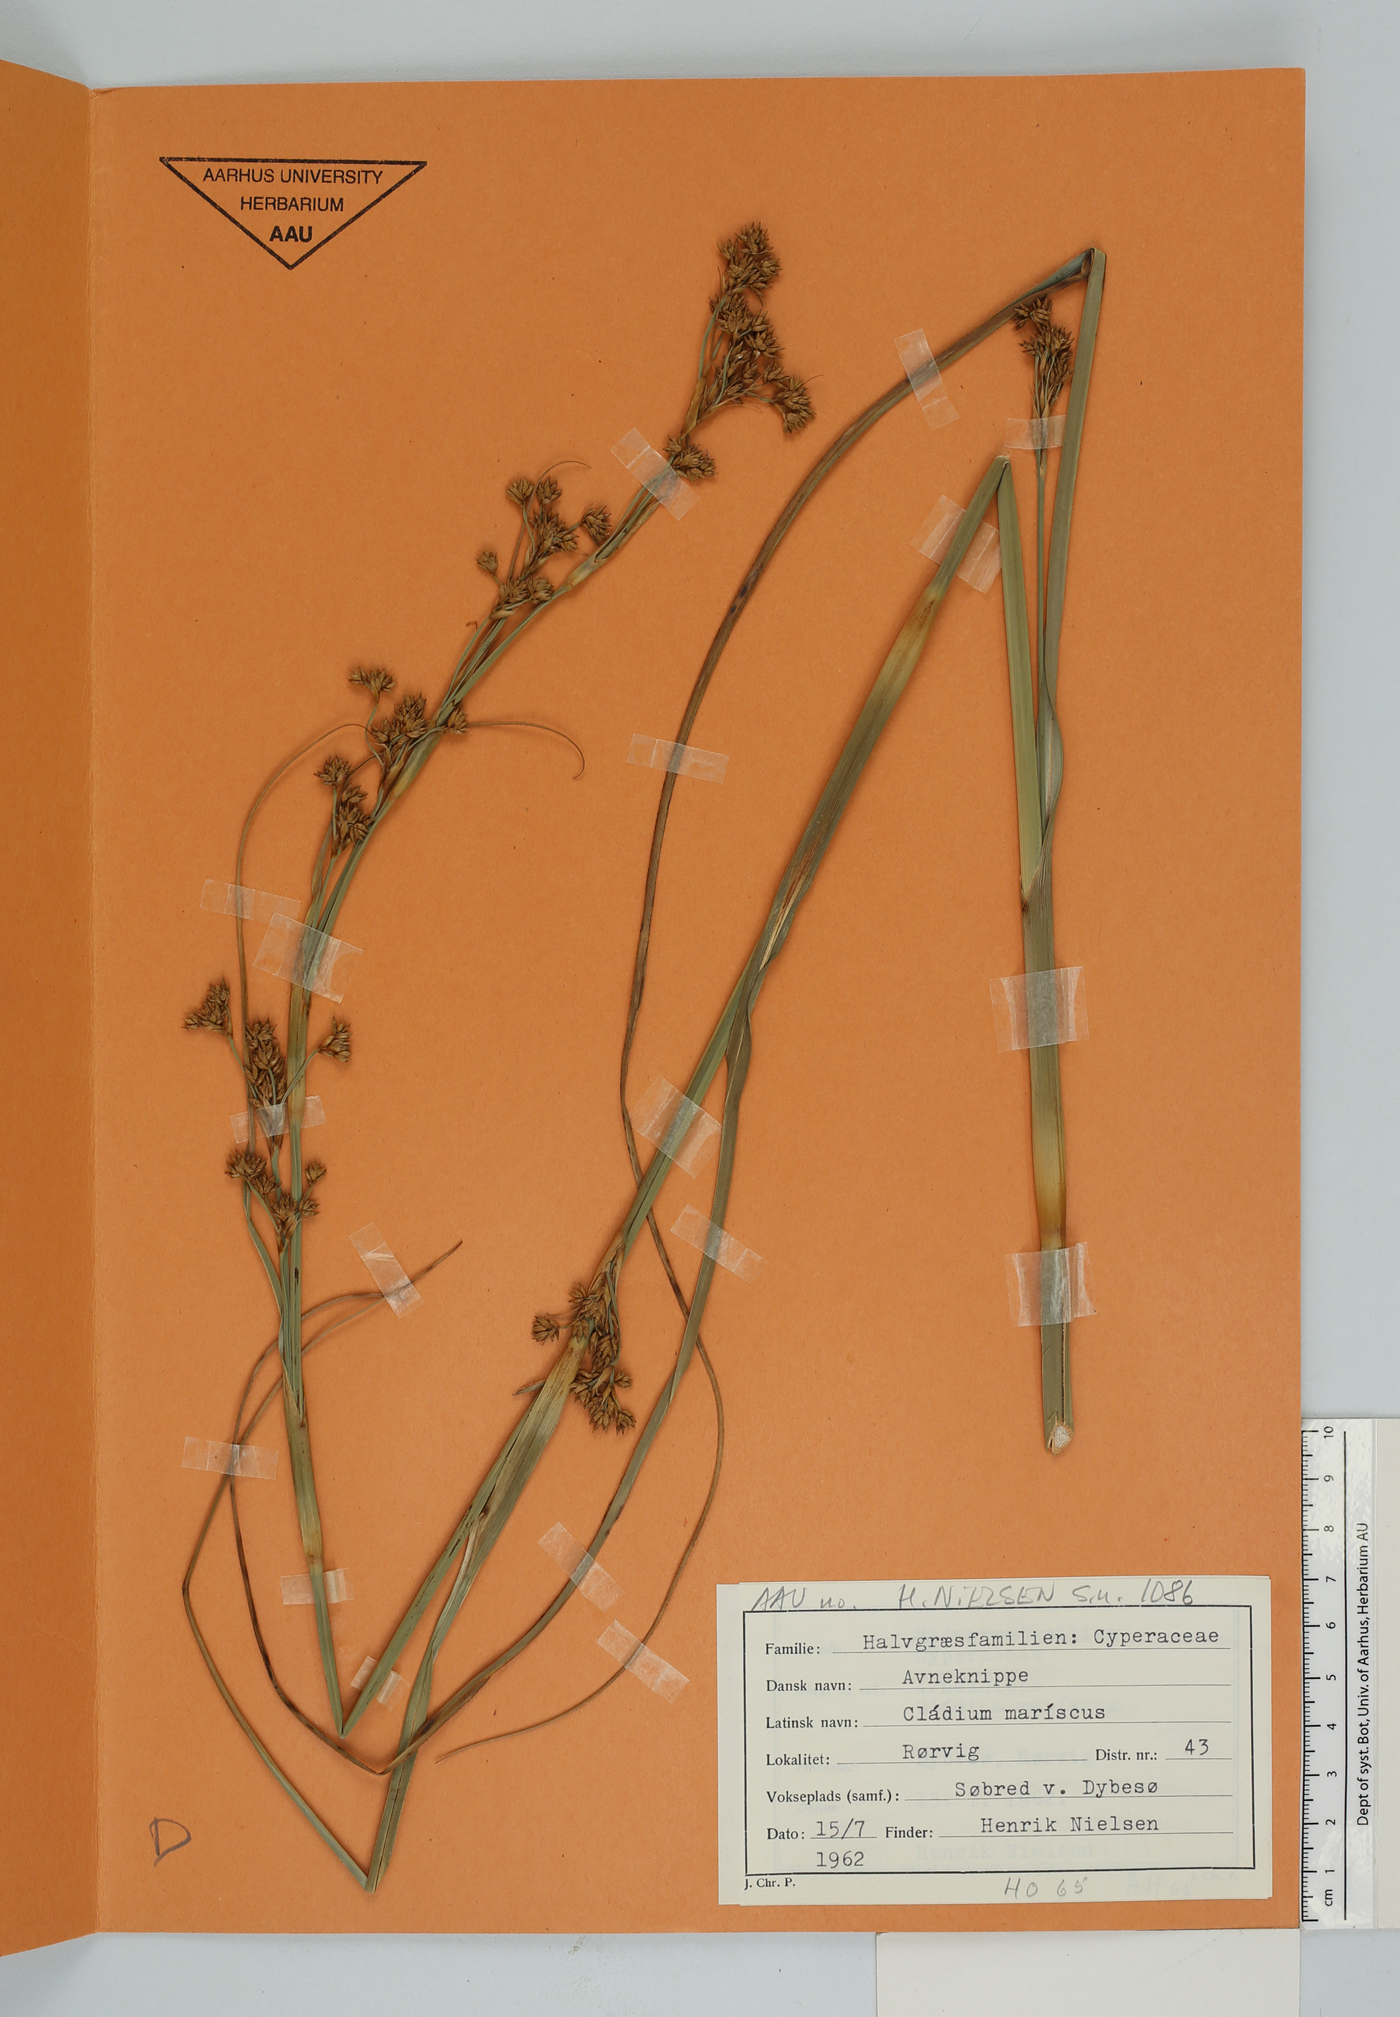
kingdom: Plantae
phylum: Tracheophyta
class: Liliopsida
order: Poales
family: Cyperaceae
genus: Cladium
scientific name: Cladium mariscus
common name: Great fen-sedge
